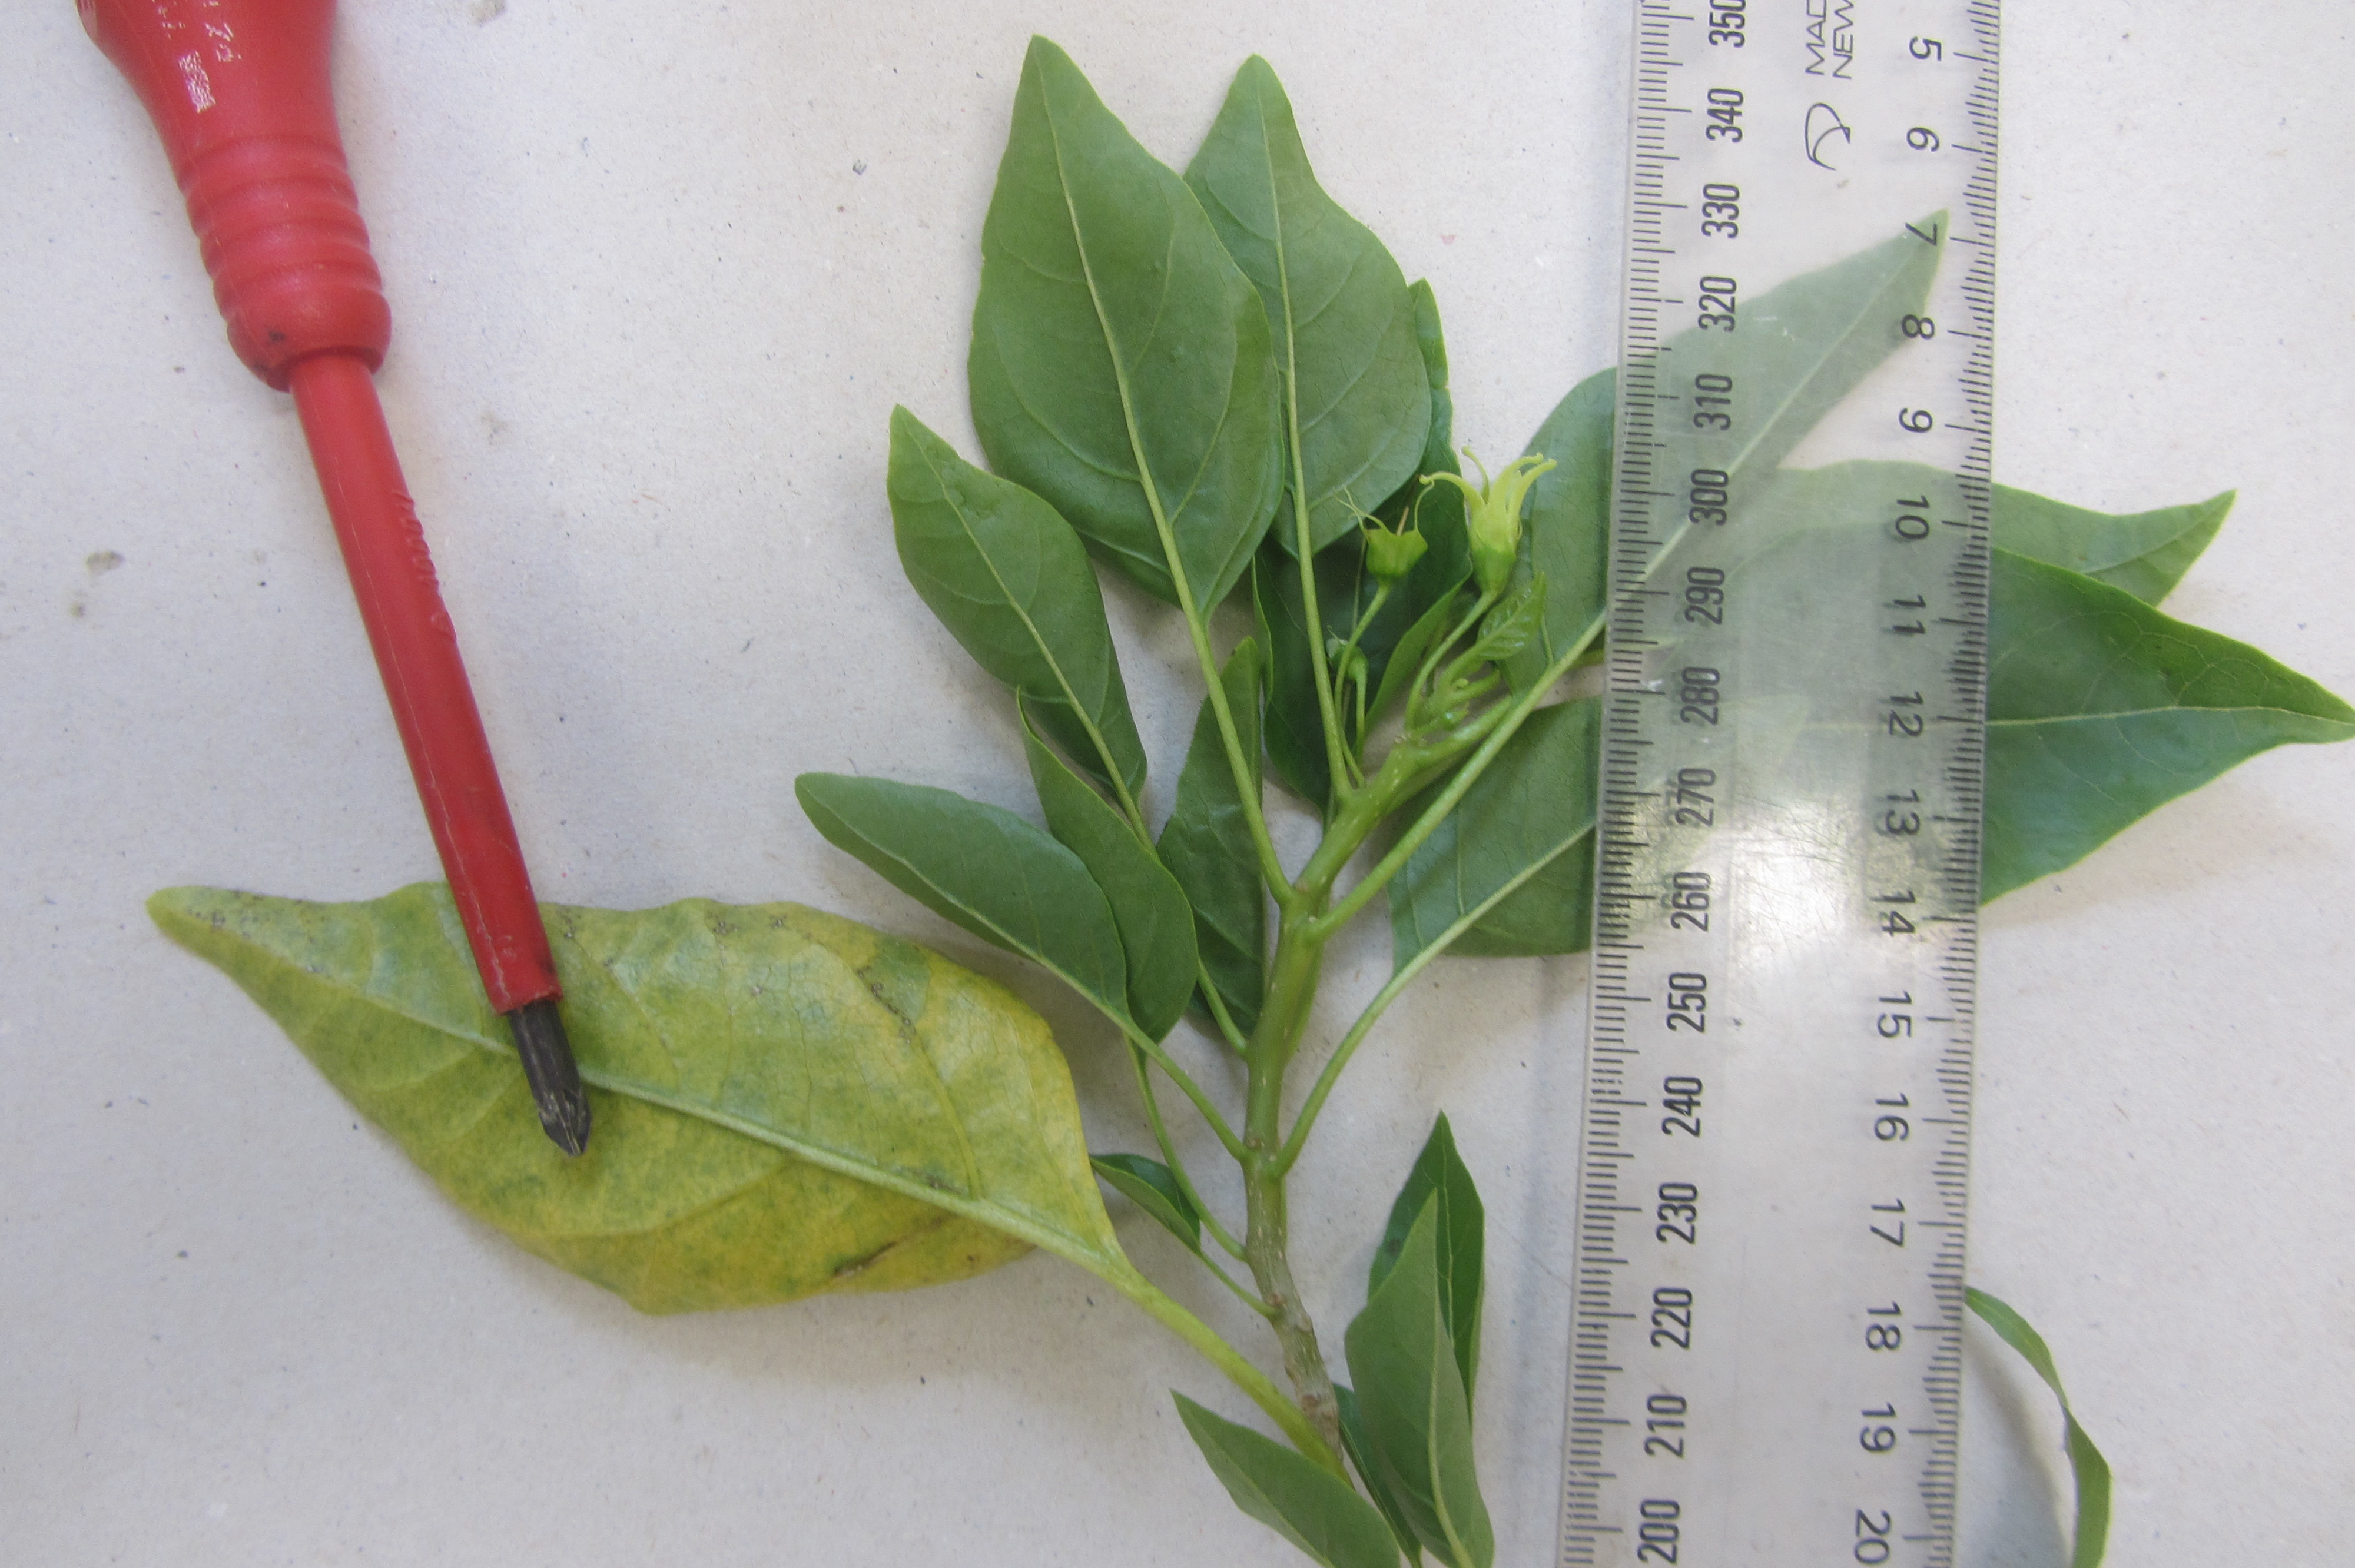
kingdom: Plantae
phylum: Marchantiophyta
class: Jungermanniopsida
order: Porellales
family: Lejeuneaceae
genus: Cheilolejeunea
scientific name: Cheilolejeunea
